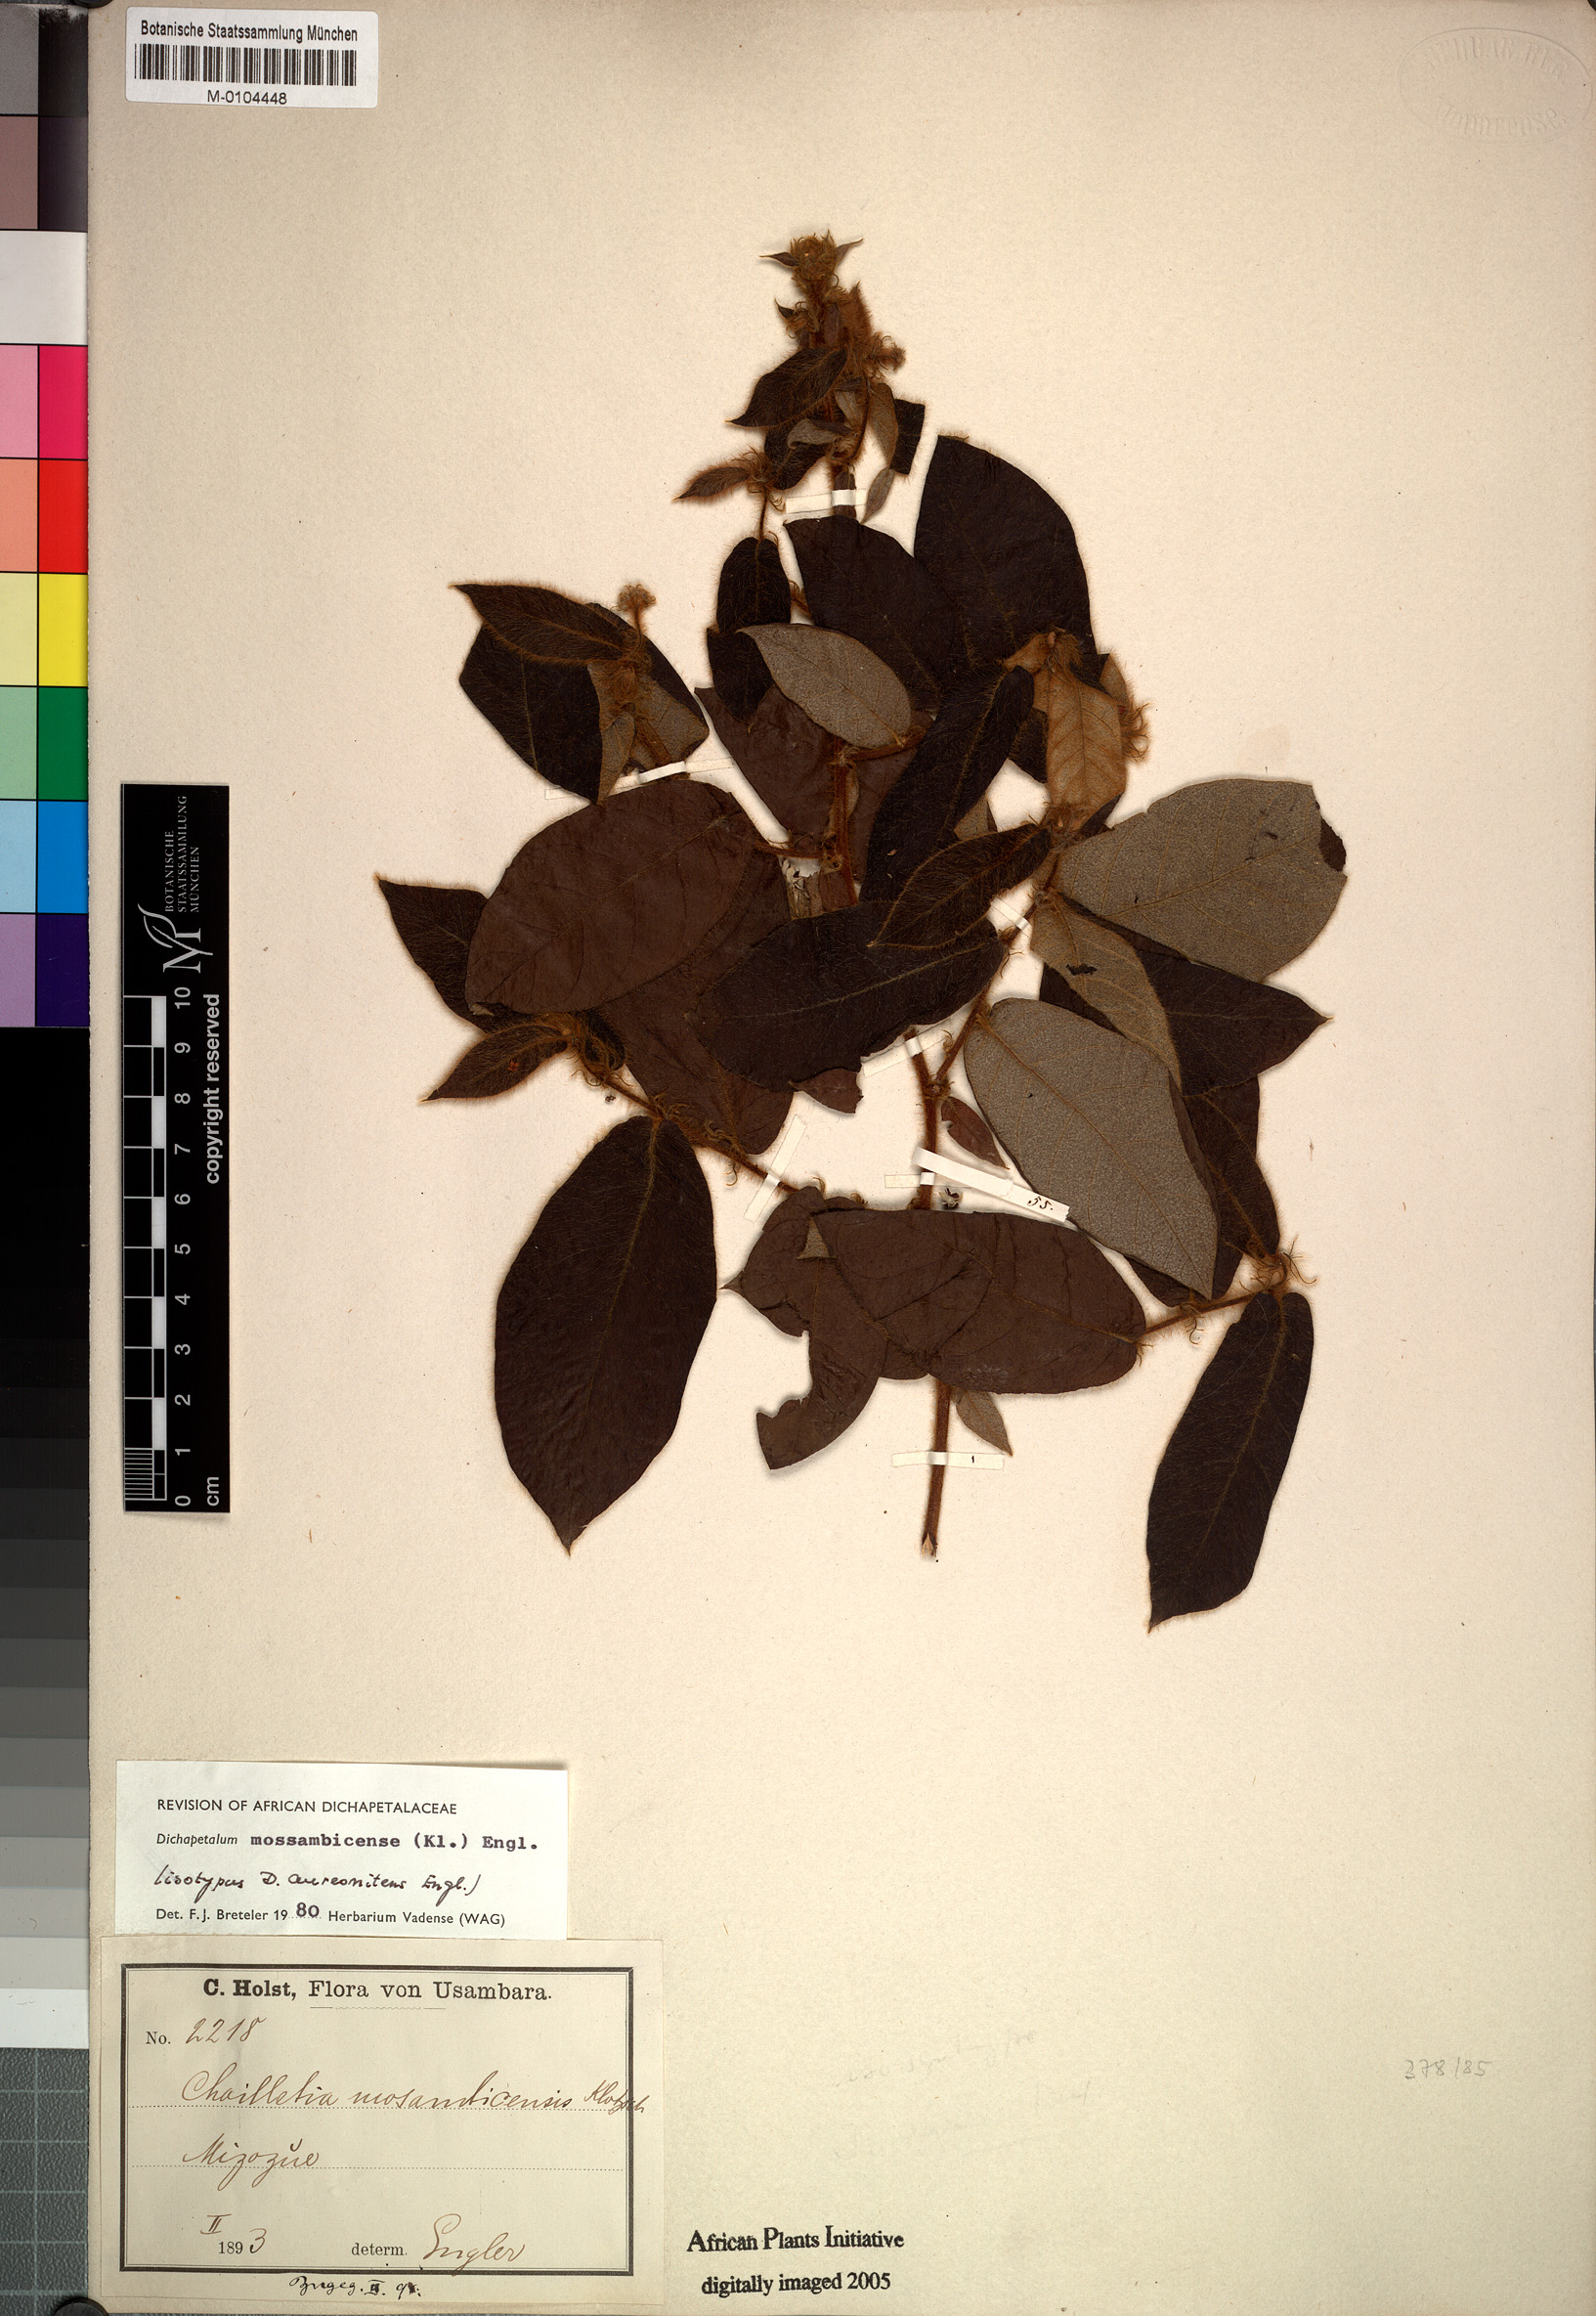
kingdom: Plantae
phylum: Tracheophyta
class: Magnoliopsida
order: Malpighiales
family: Dichapetalaceae
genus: Dichapetalum
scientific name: Dichapetalum mossambicense
